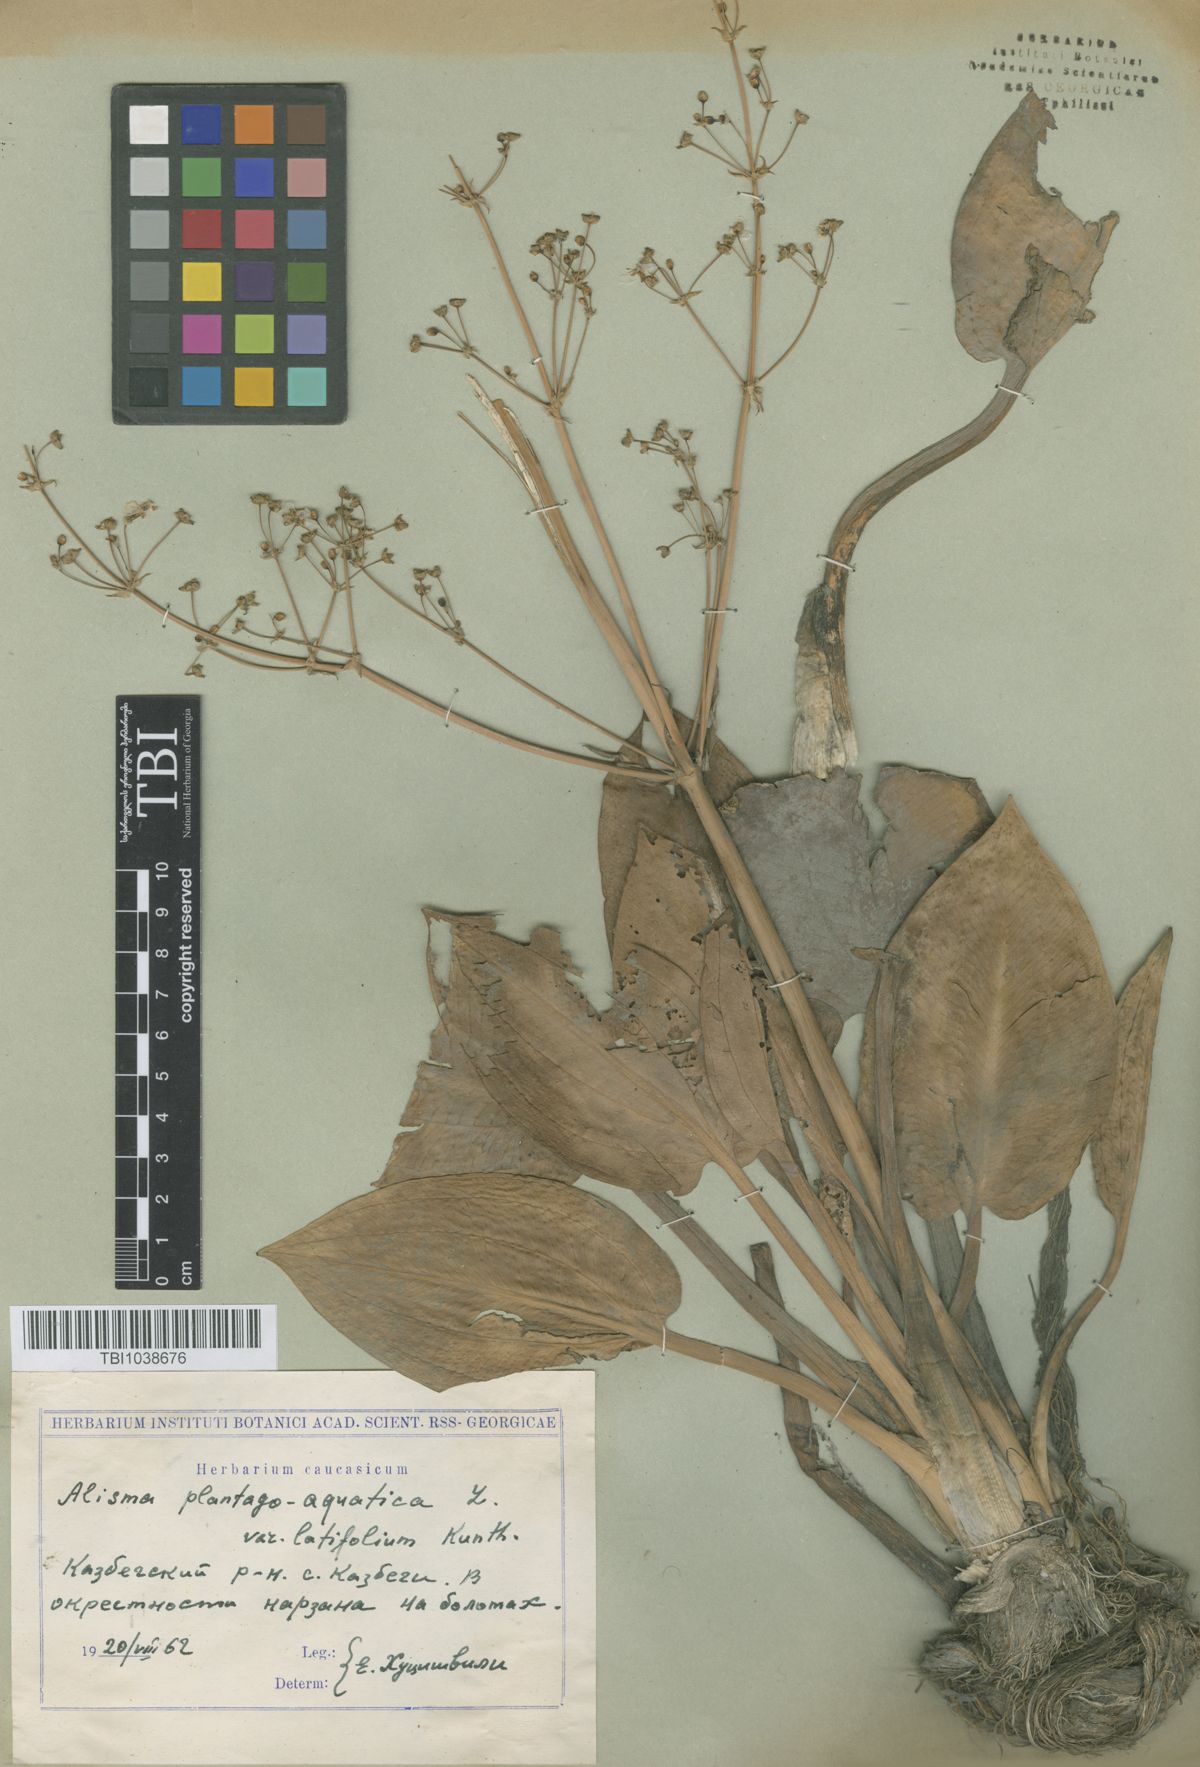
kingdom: Plantae
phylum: Tracheophyta
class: Liliopsida
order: Alismatales
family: Alismataceae
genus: Alisma
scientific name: Alisma plantago-aquatica
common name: Water-plantain
